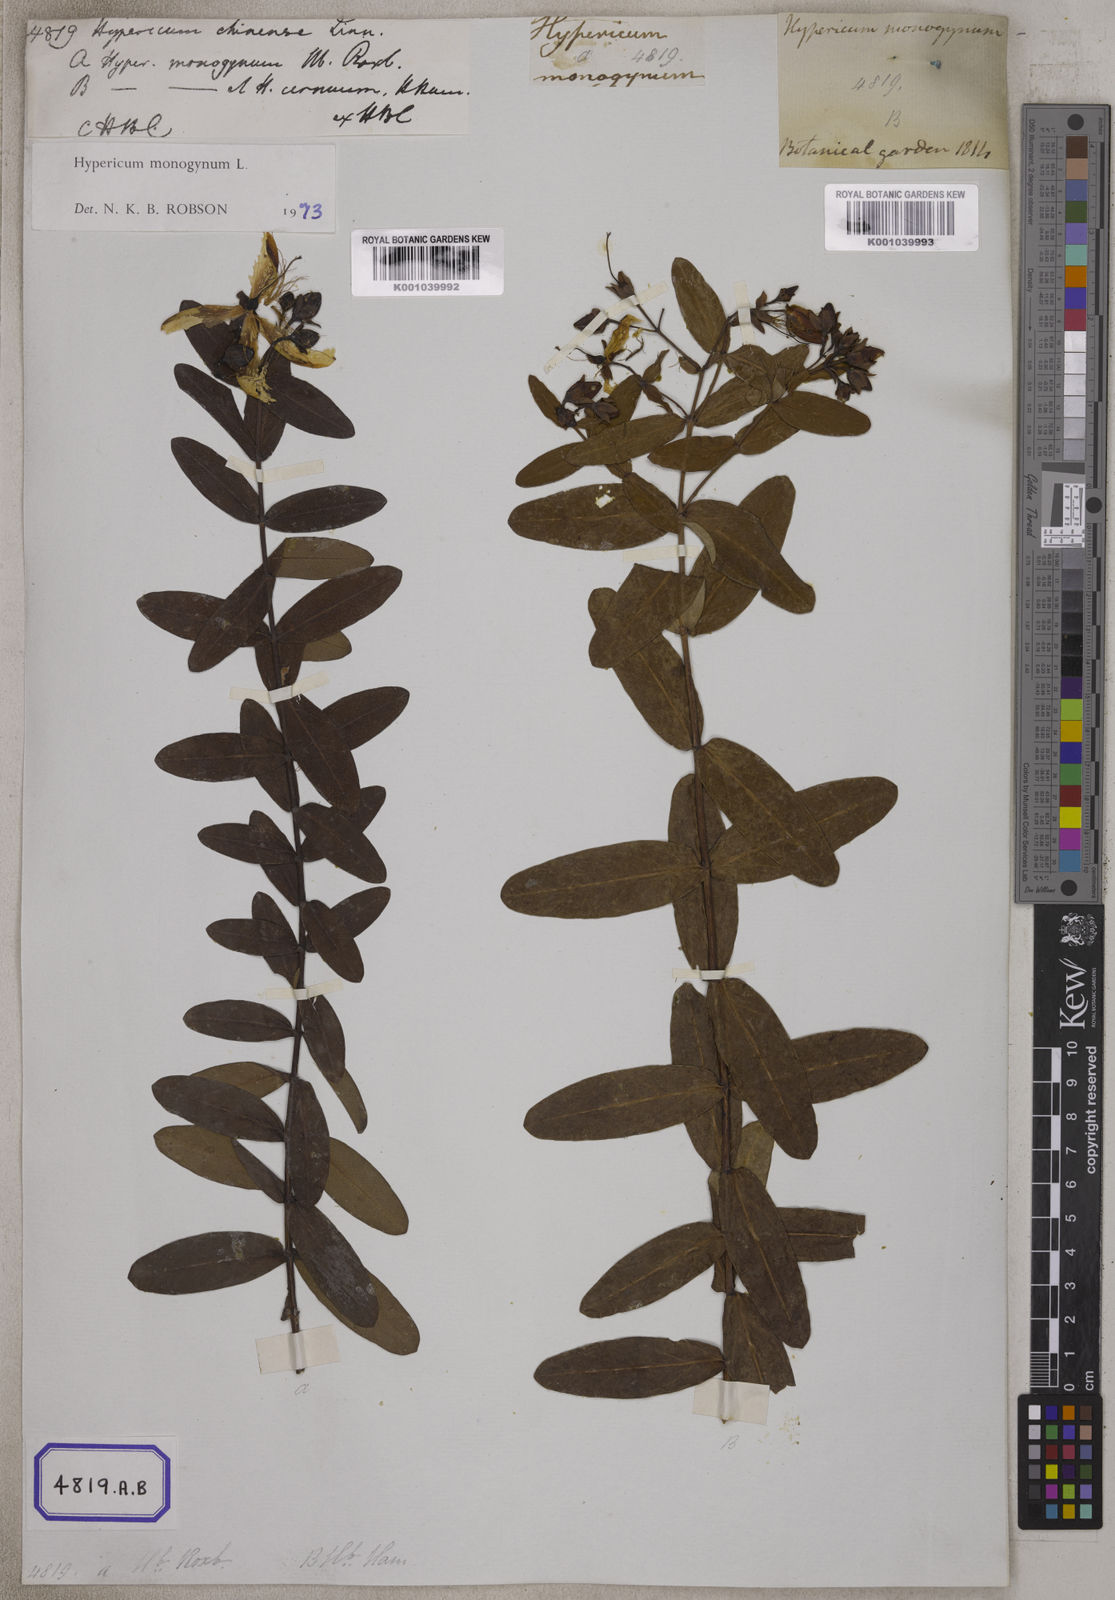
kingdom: Plantae
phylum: Tracheophyta
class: Magnoliopsida
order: Malpighiales
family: Hypericaceae
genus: Hypericum
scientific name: Hypericum monogynum
